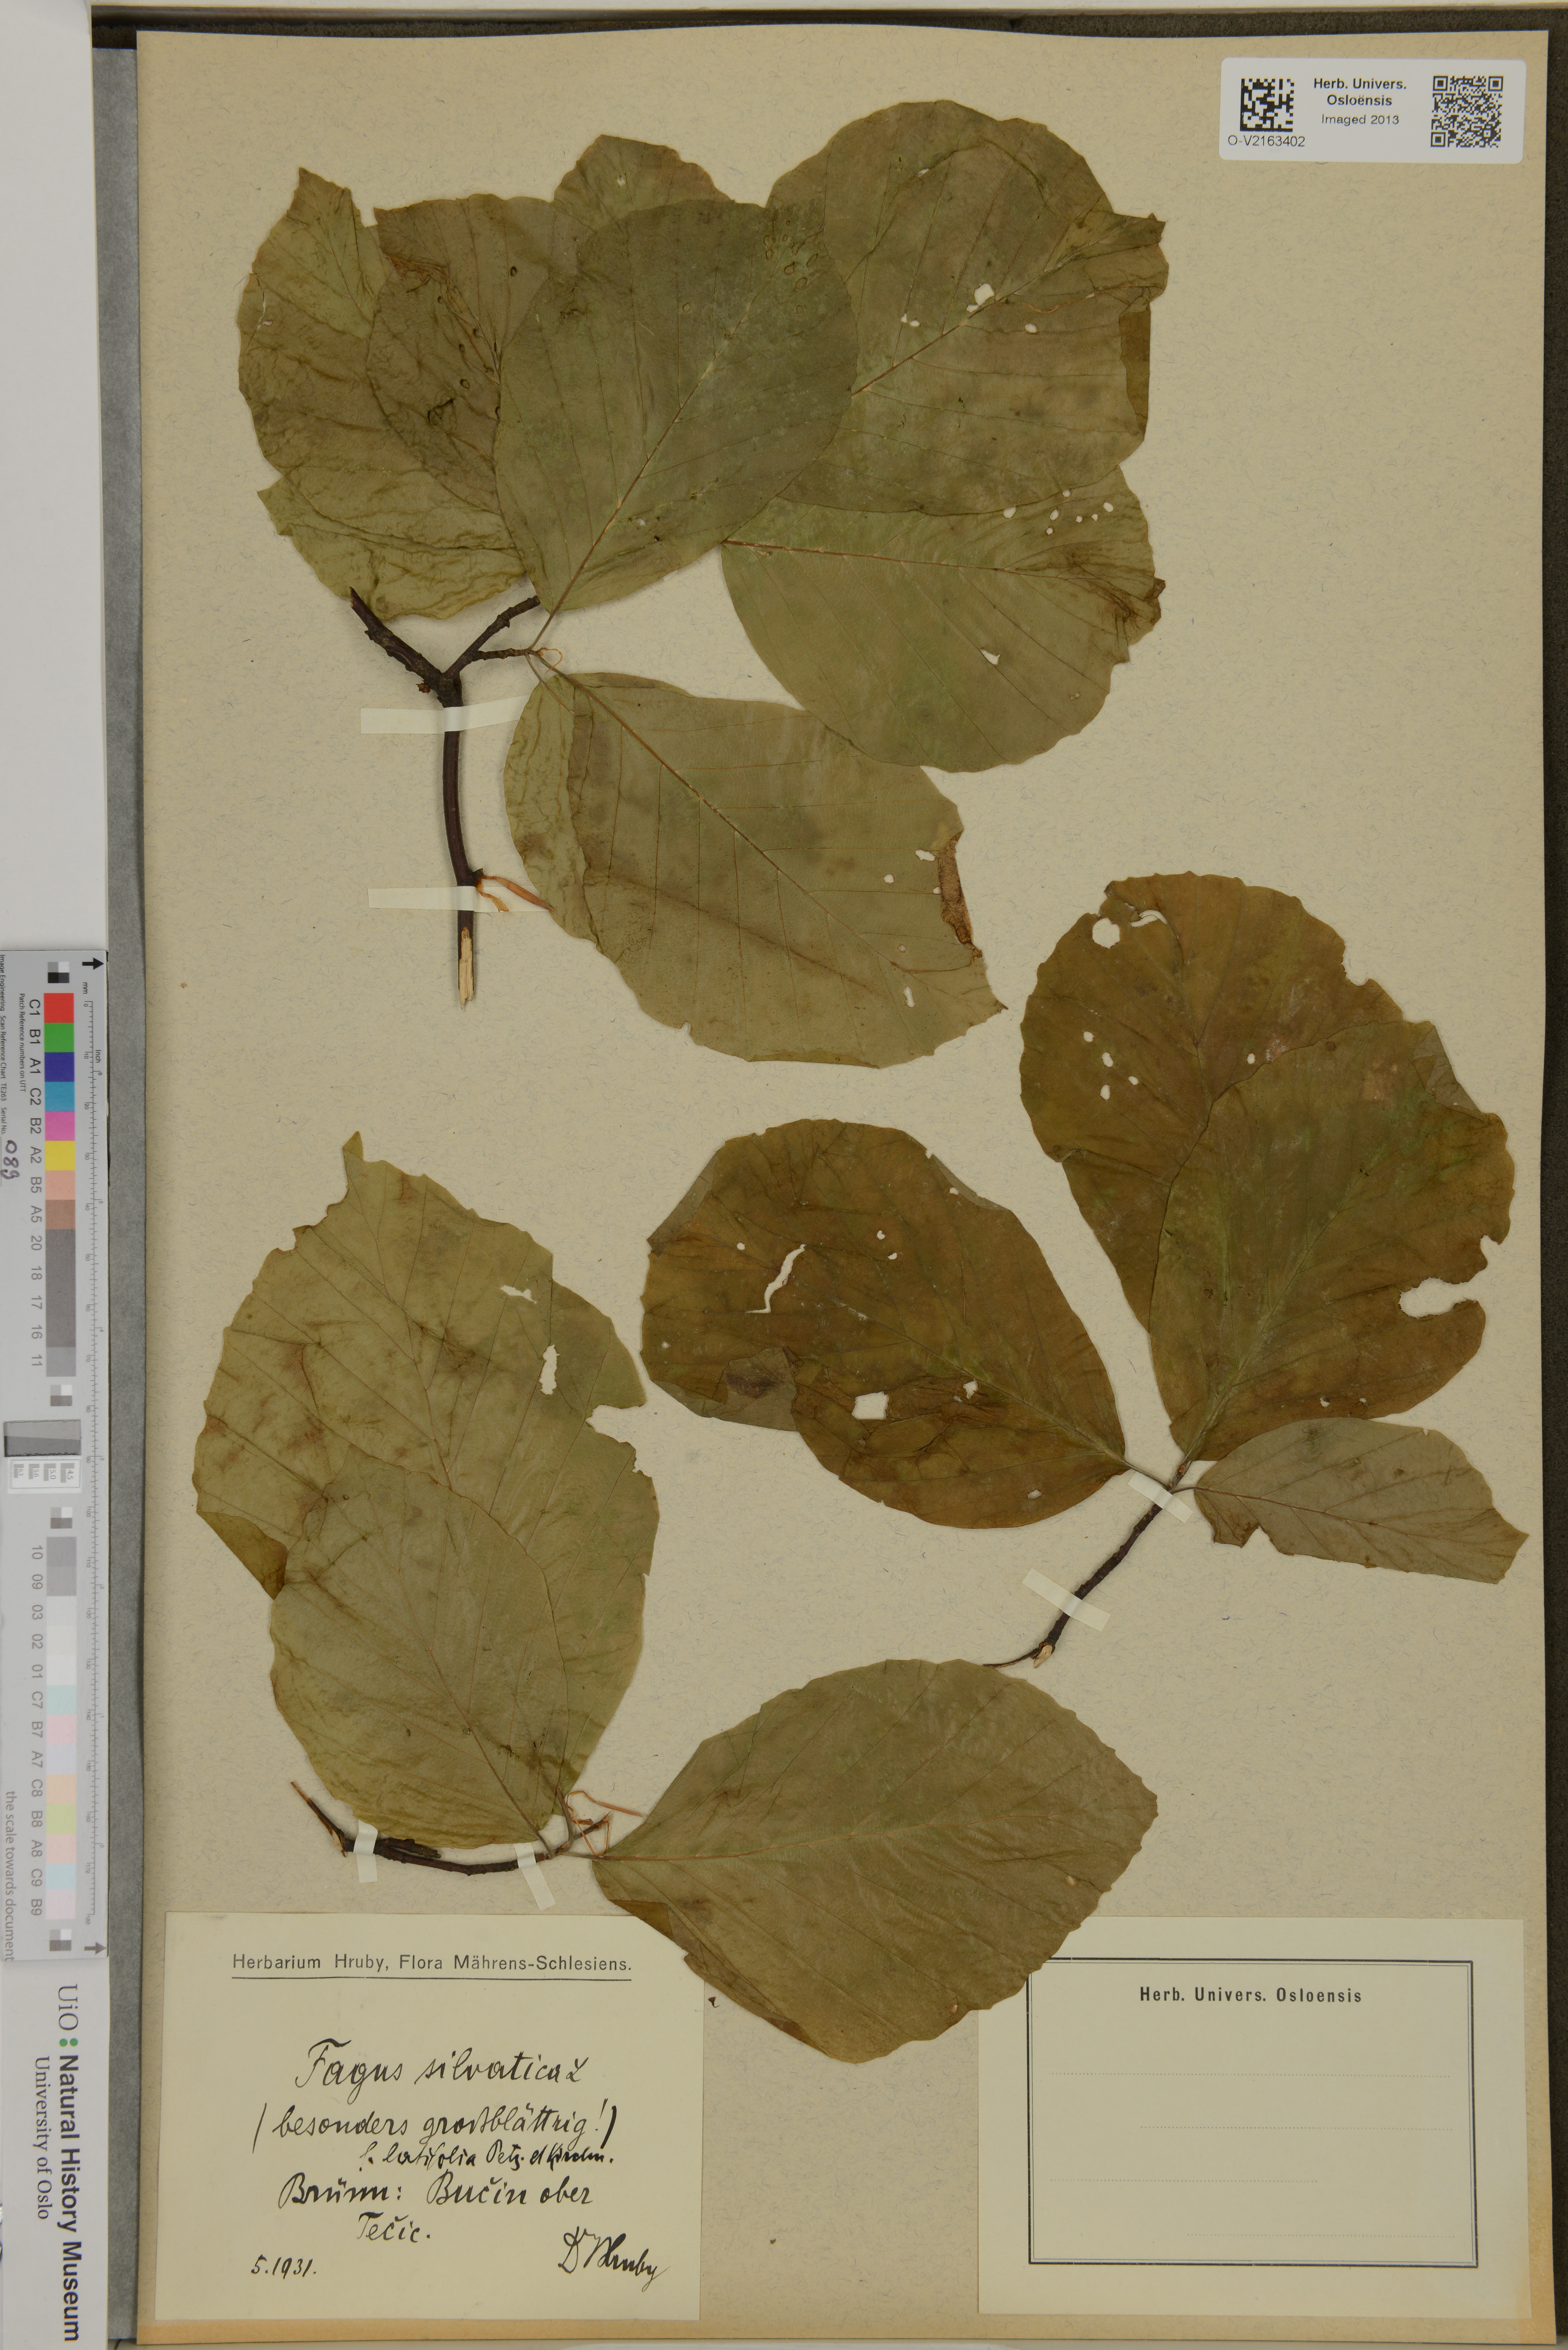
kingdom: Plantae
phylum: Tracheophyta
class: Magnoliopsida
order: Fagales
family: Fagaceae
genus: Fagus
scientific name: Fagus sylvatica
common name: Beech
